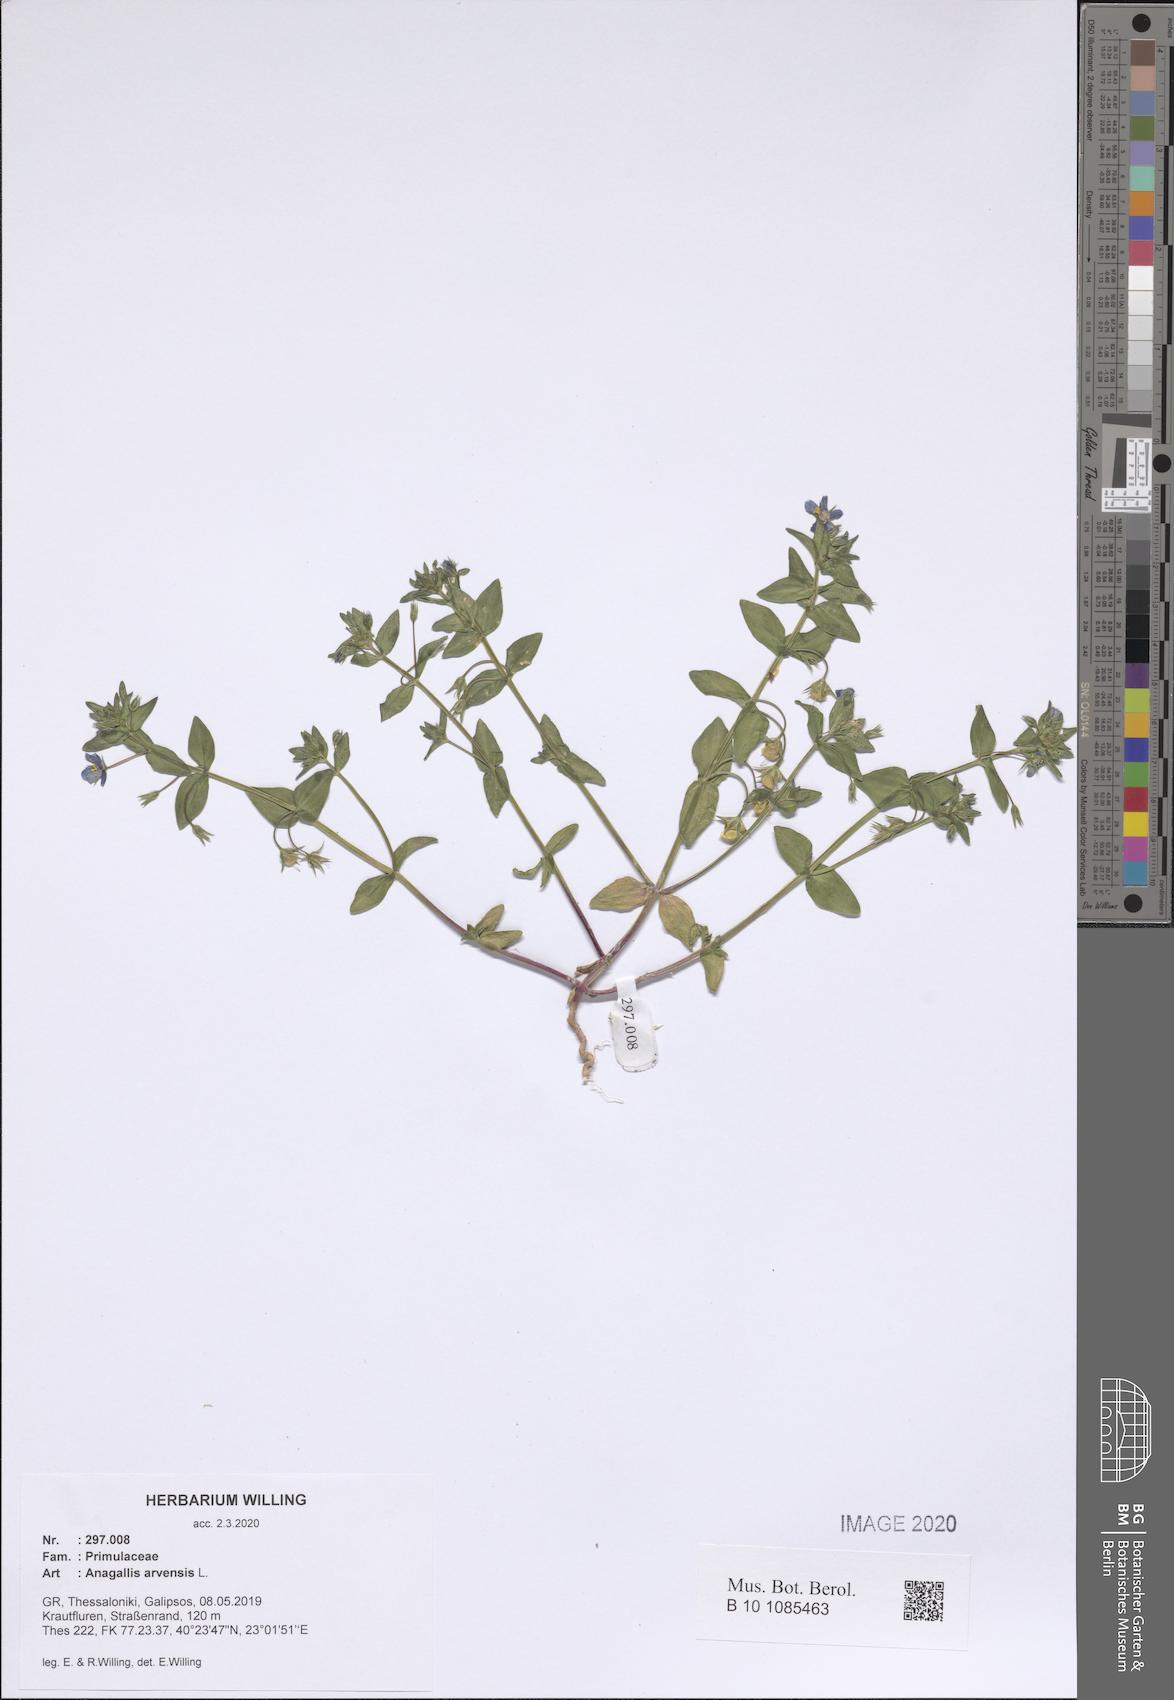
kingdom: Plantae
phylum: Tracheophyta
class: Magnoliopsida
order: Ericales
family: Primulaceae
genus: Lysimachia
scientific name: Lysimachia arvensis
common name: Scarlet pimpernel
